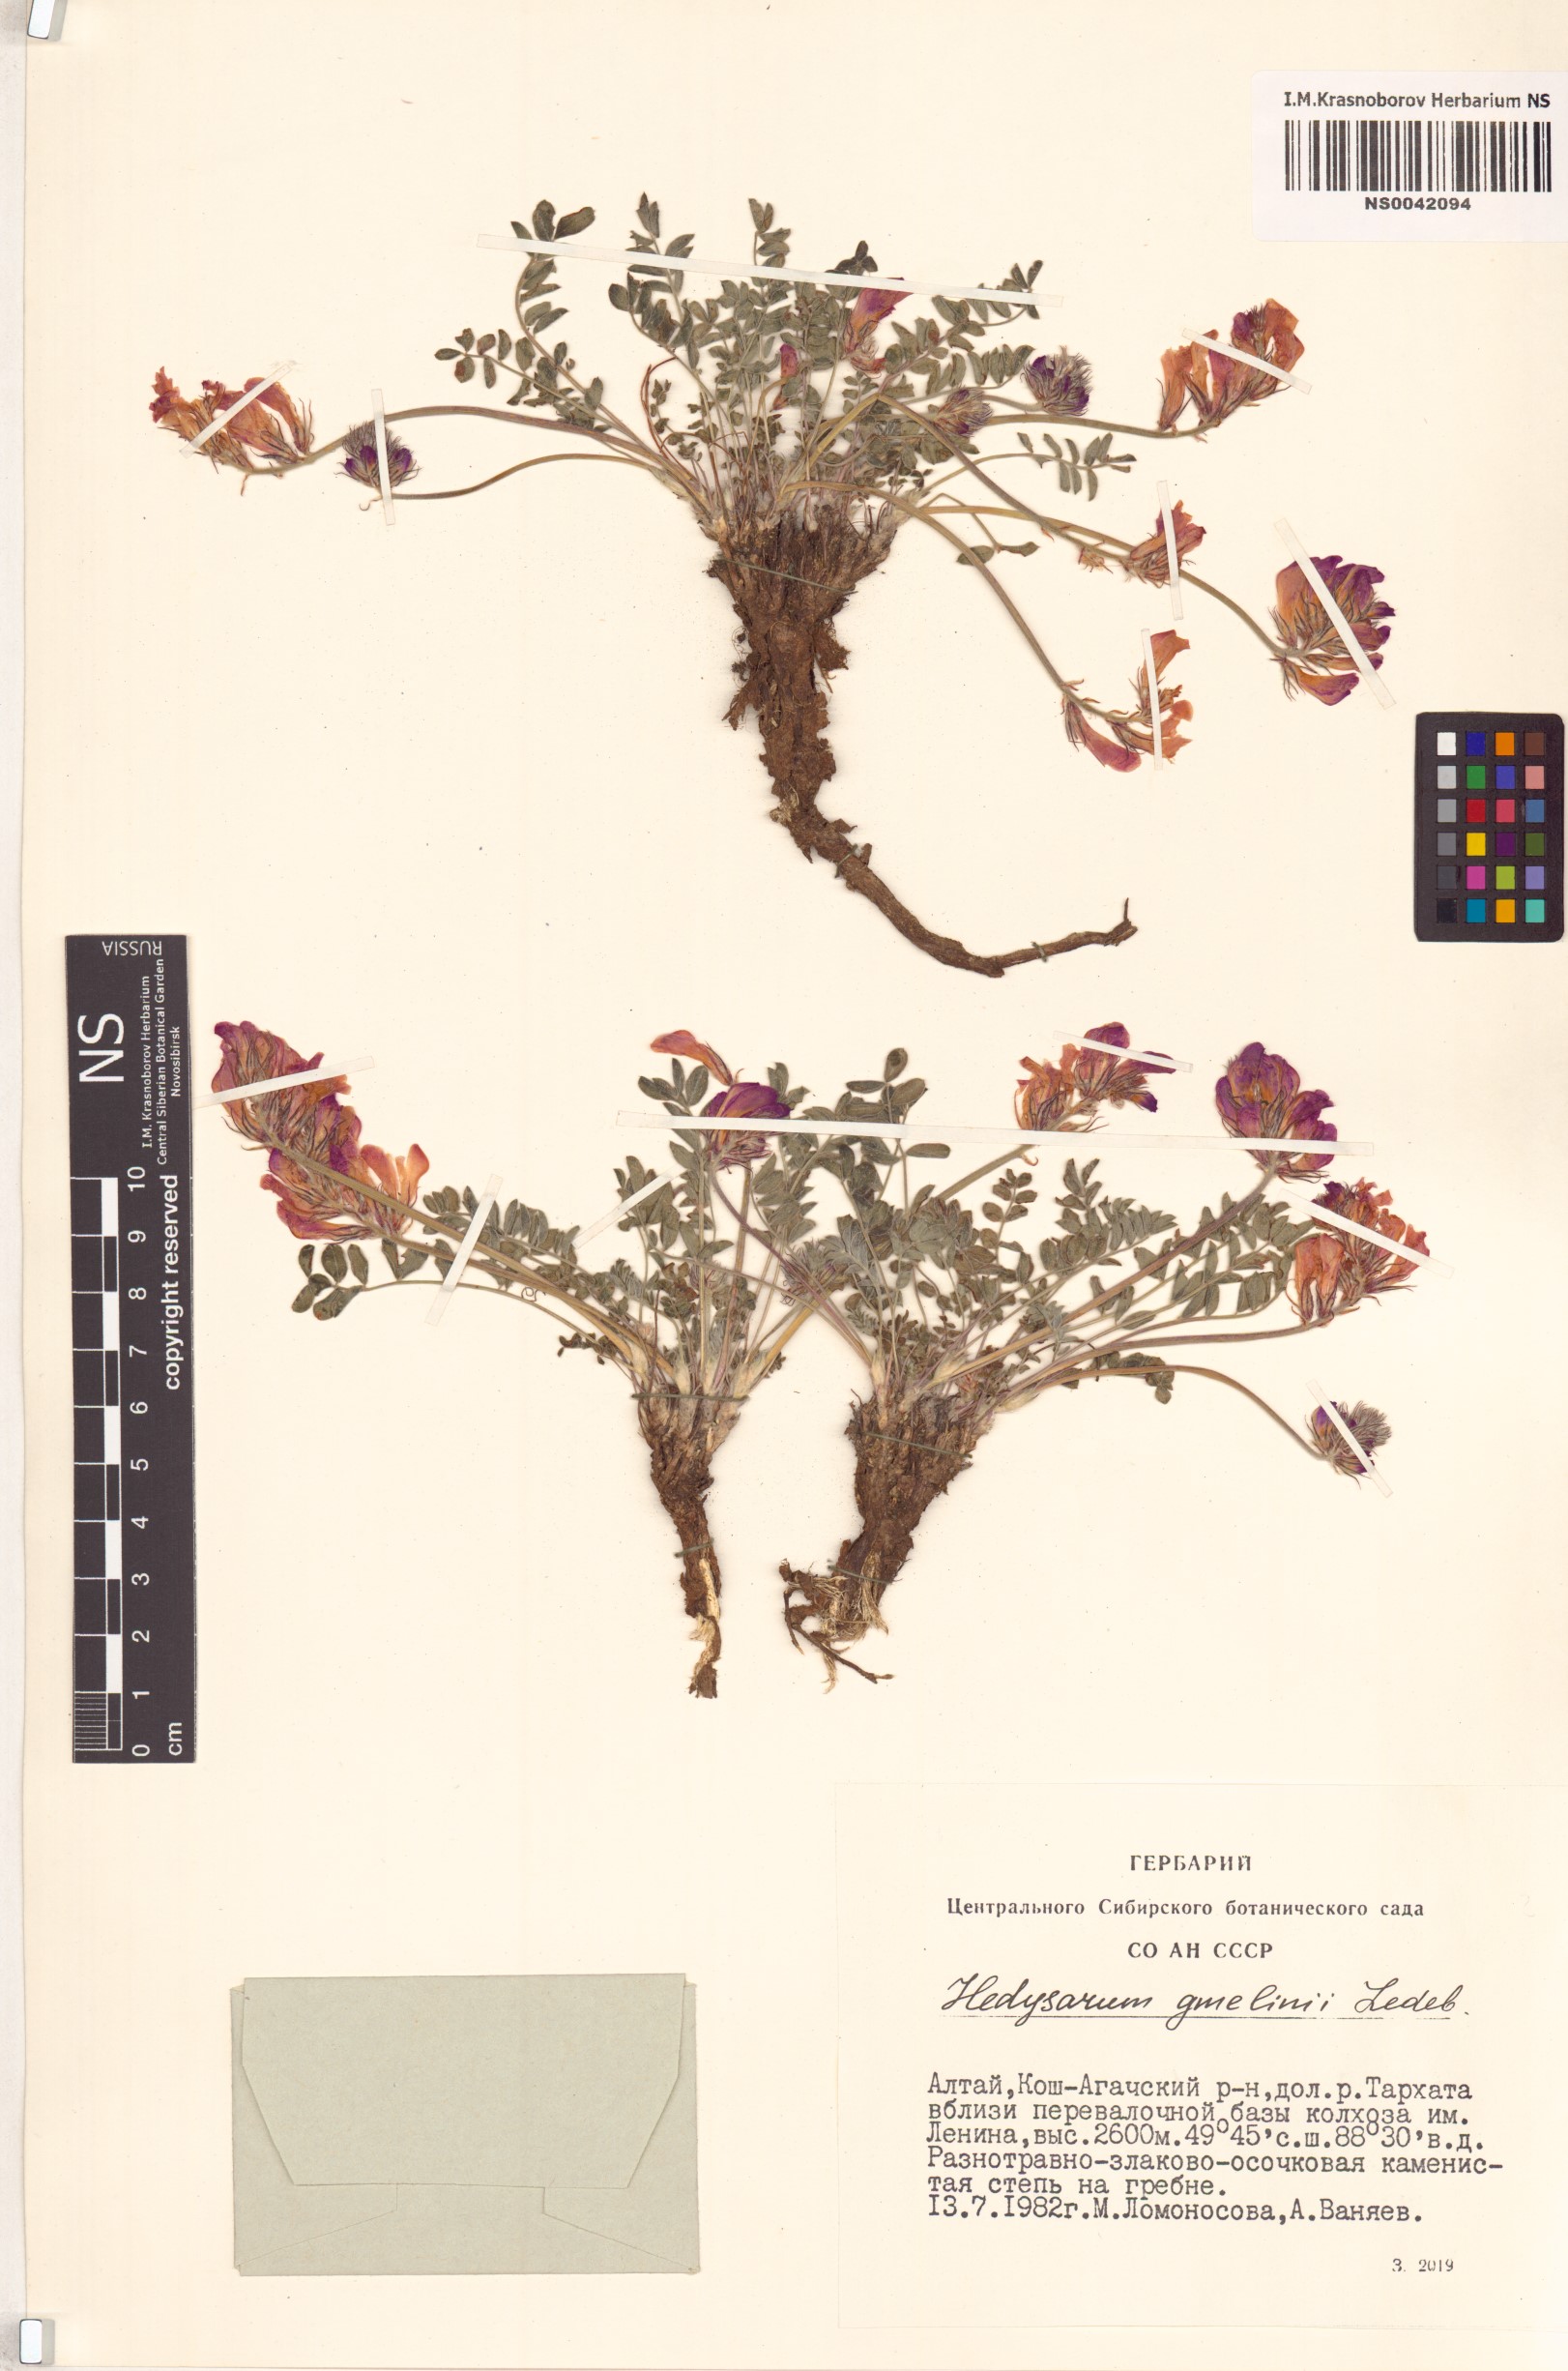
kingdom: Plantae
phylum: Tracheophyta
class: Magnoliopsida
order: Fabales
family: Fabaceae
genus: Hedysarum
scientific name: Hedysarum gmelinii
